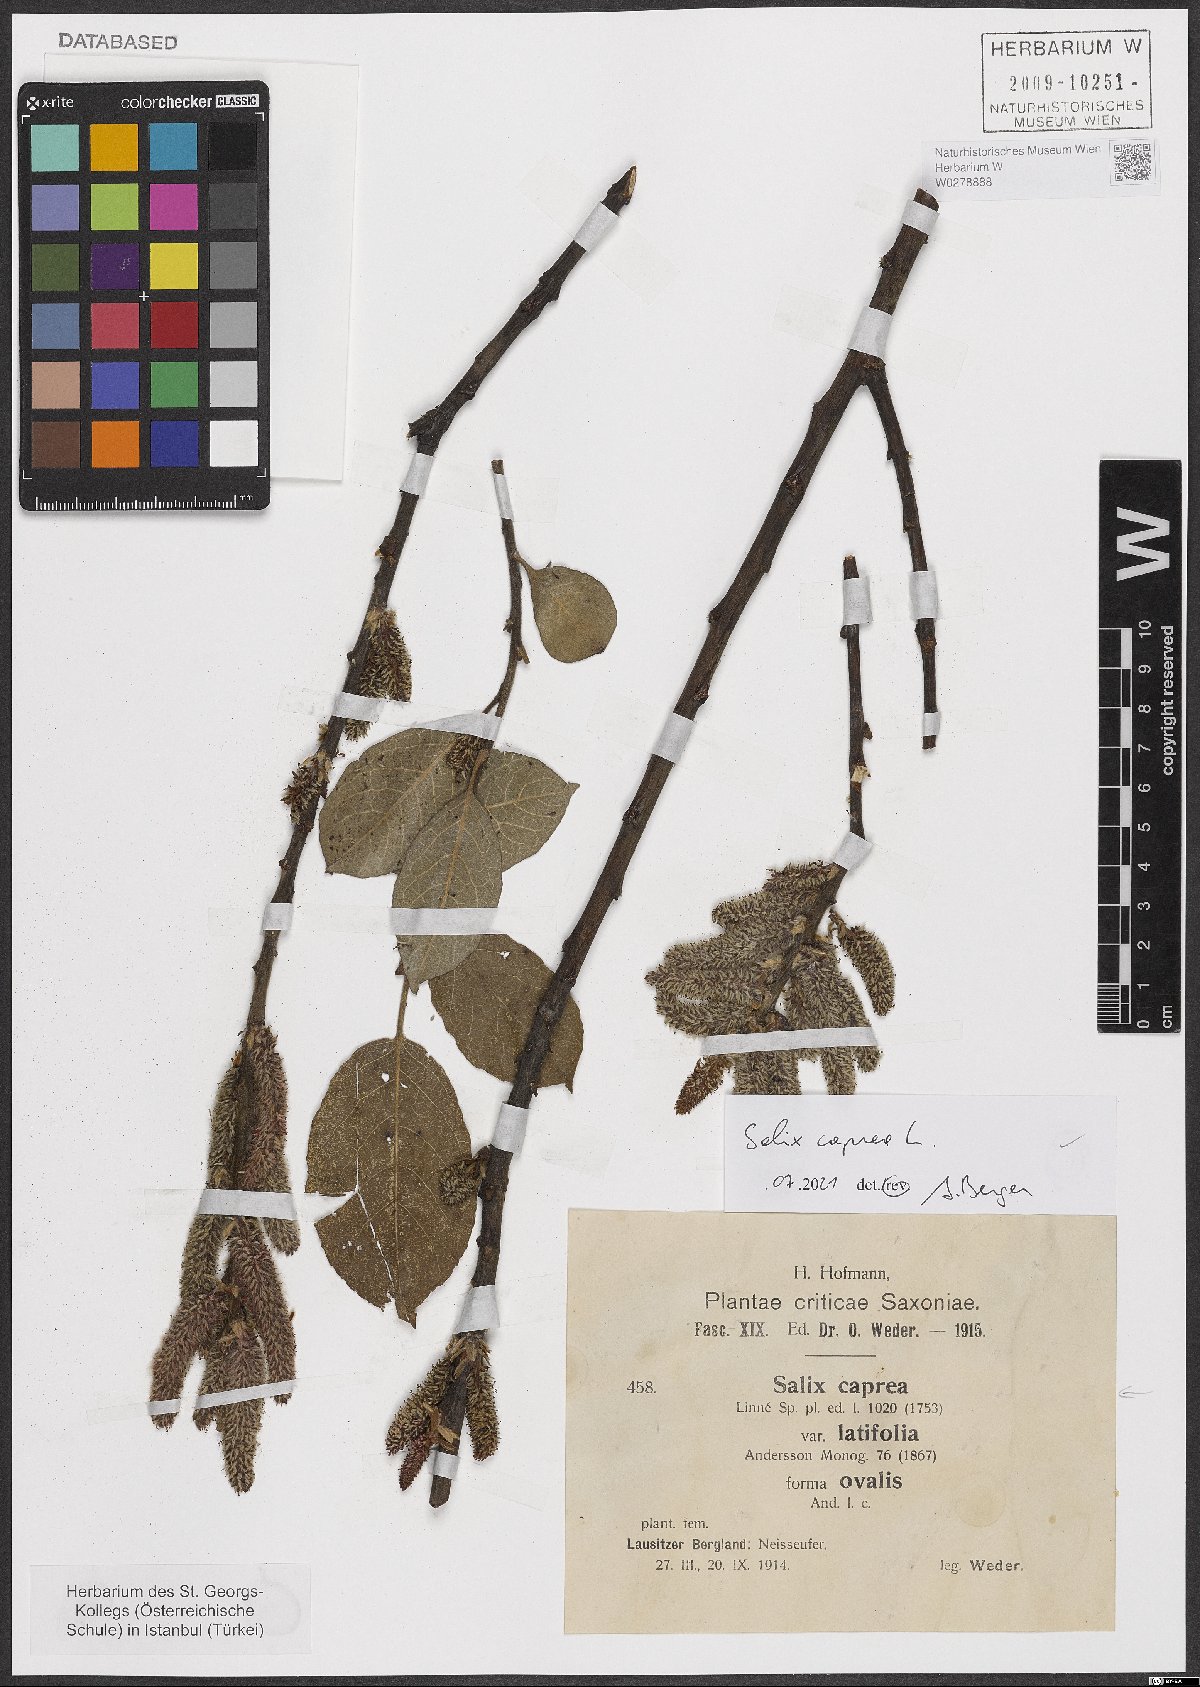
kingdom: Plantae
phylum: Tracheophyta
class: Magnoliopsida
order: Malpighiales
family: Salicaceae
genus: Salix
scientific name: Salix caprea
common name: Goat willow
